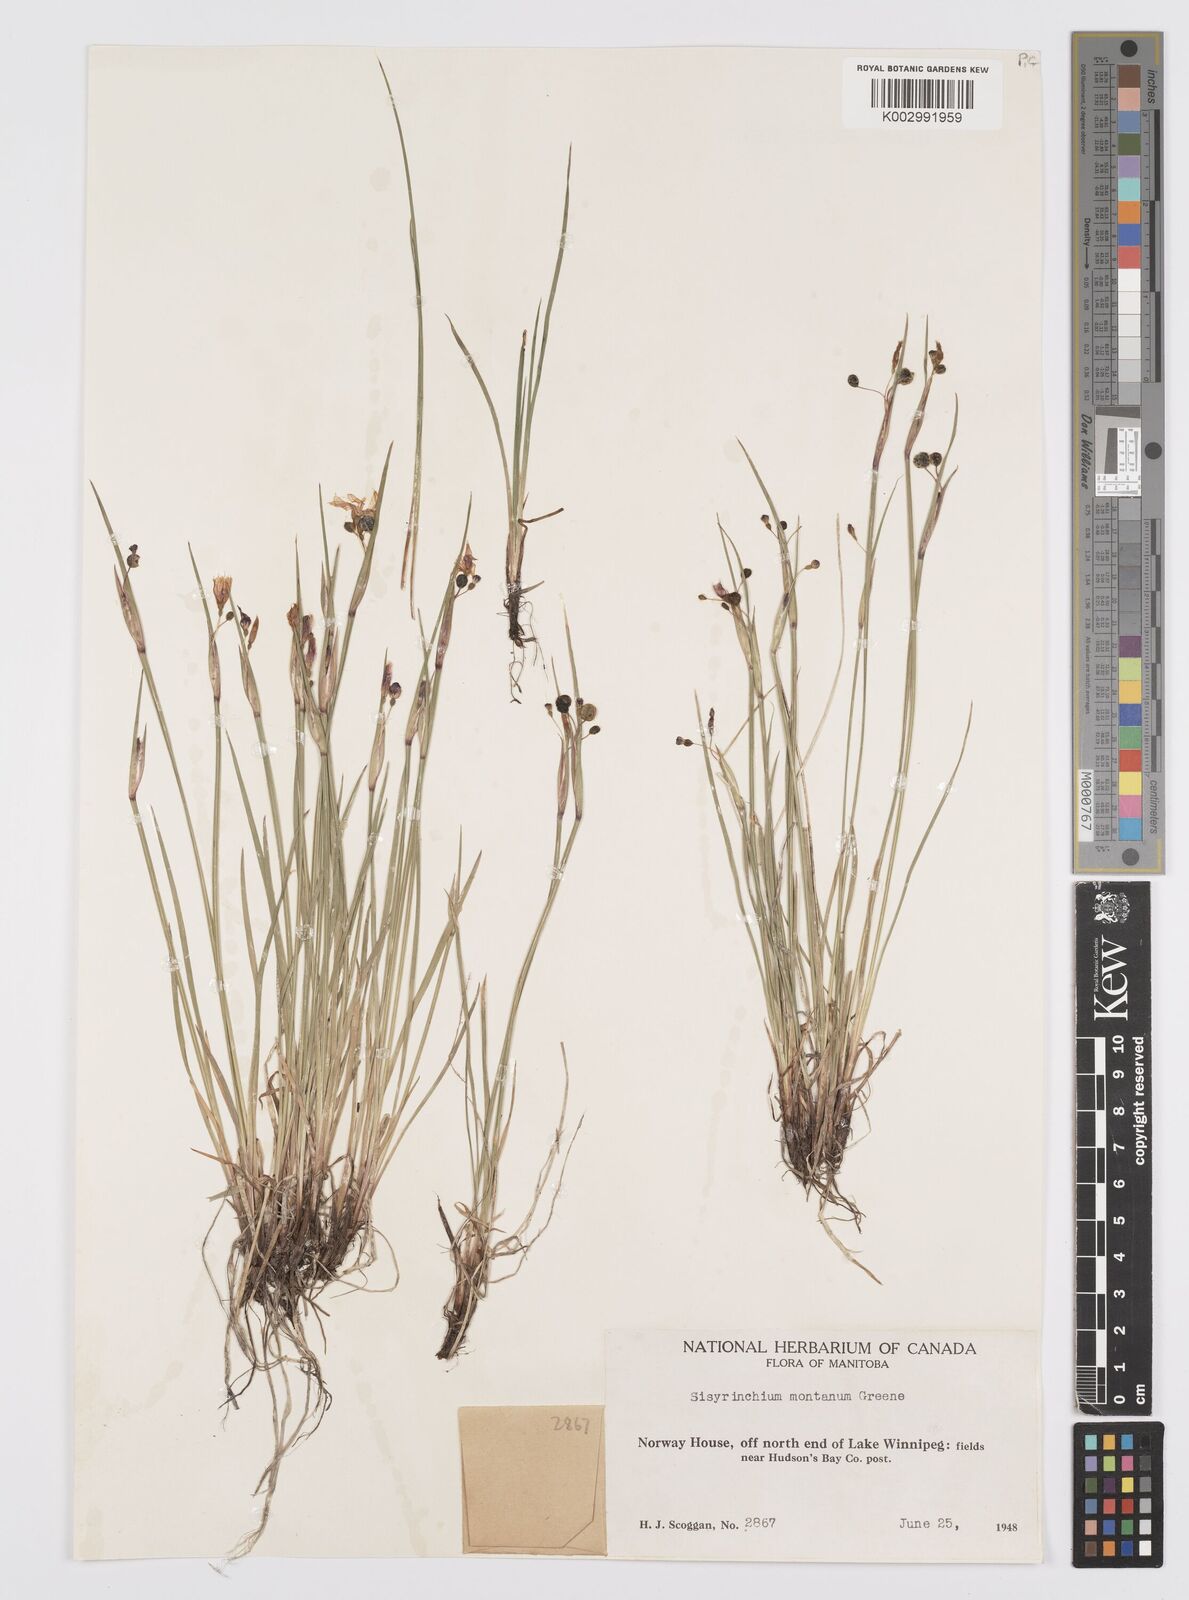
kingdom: Plantae
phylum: Tracheophyta
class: Liliopsida
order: Asparagales
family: Iridaceae
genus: Sisyrinchium
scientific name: Sisyrinchium montanum
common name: American blue-eyed-grass
